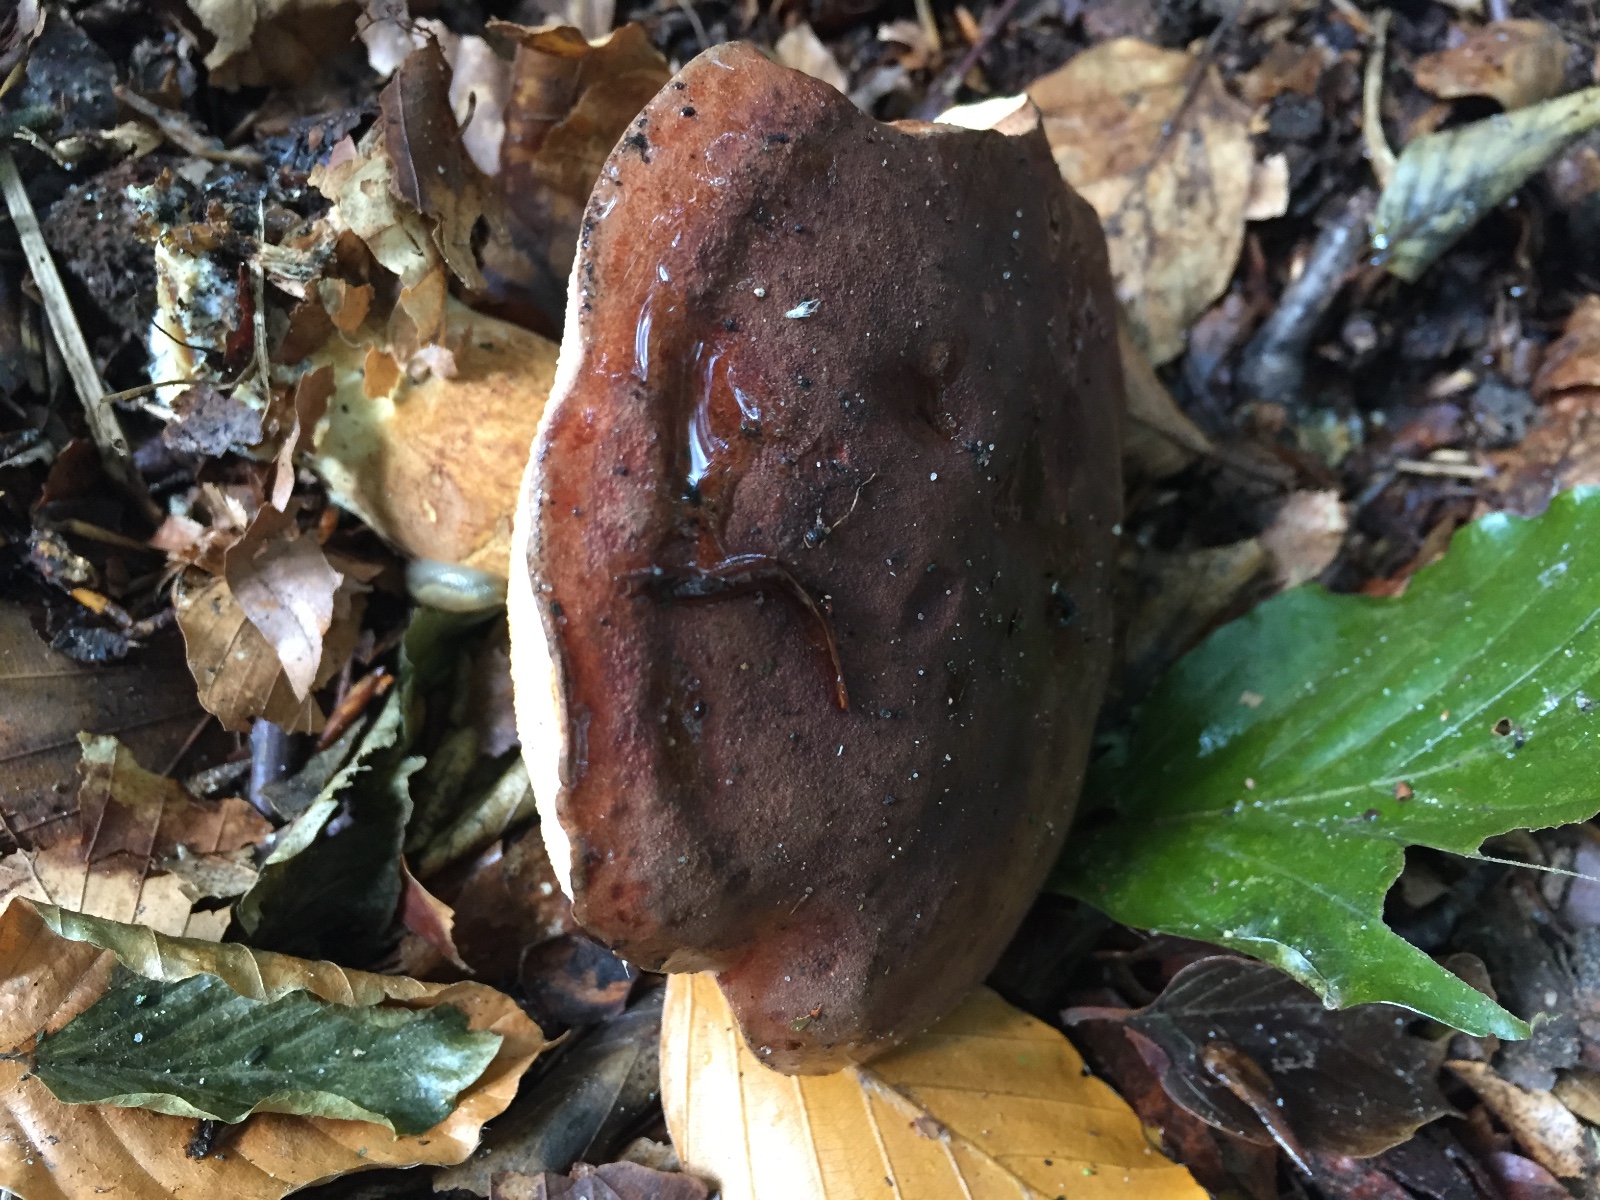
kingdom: Fungi
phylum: Basidiomycota
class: Agaricomycetes
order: Boletales
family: Boletaceae
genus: Imleria
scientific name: Imleria badia
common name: brunstokket rørhat
